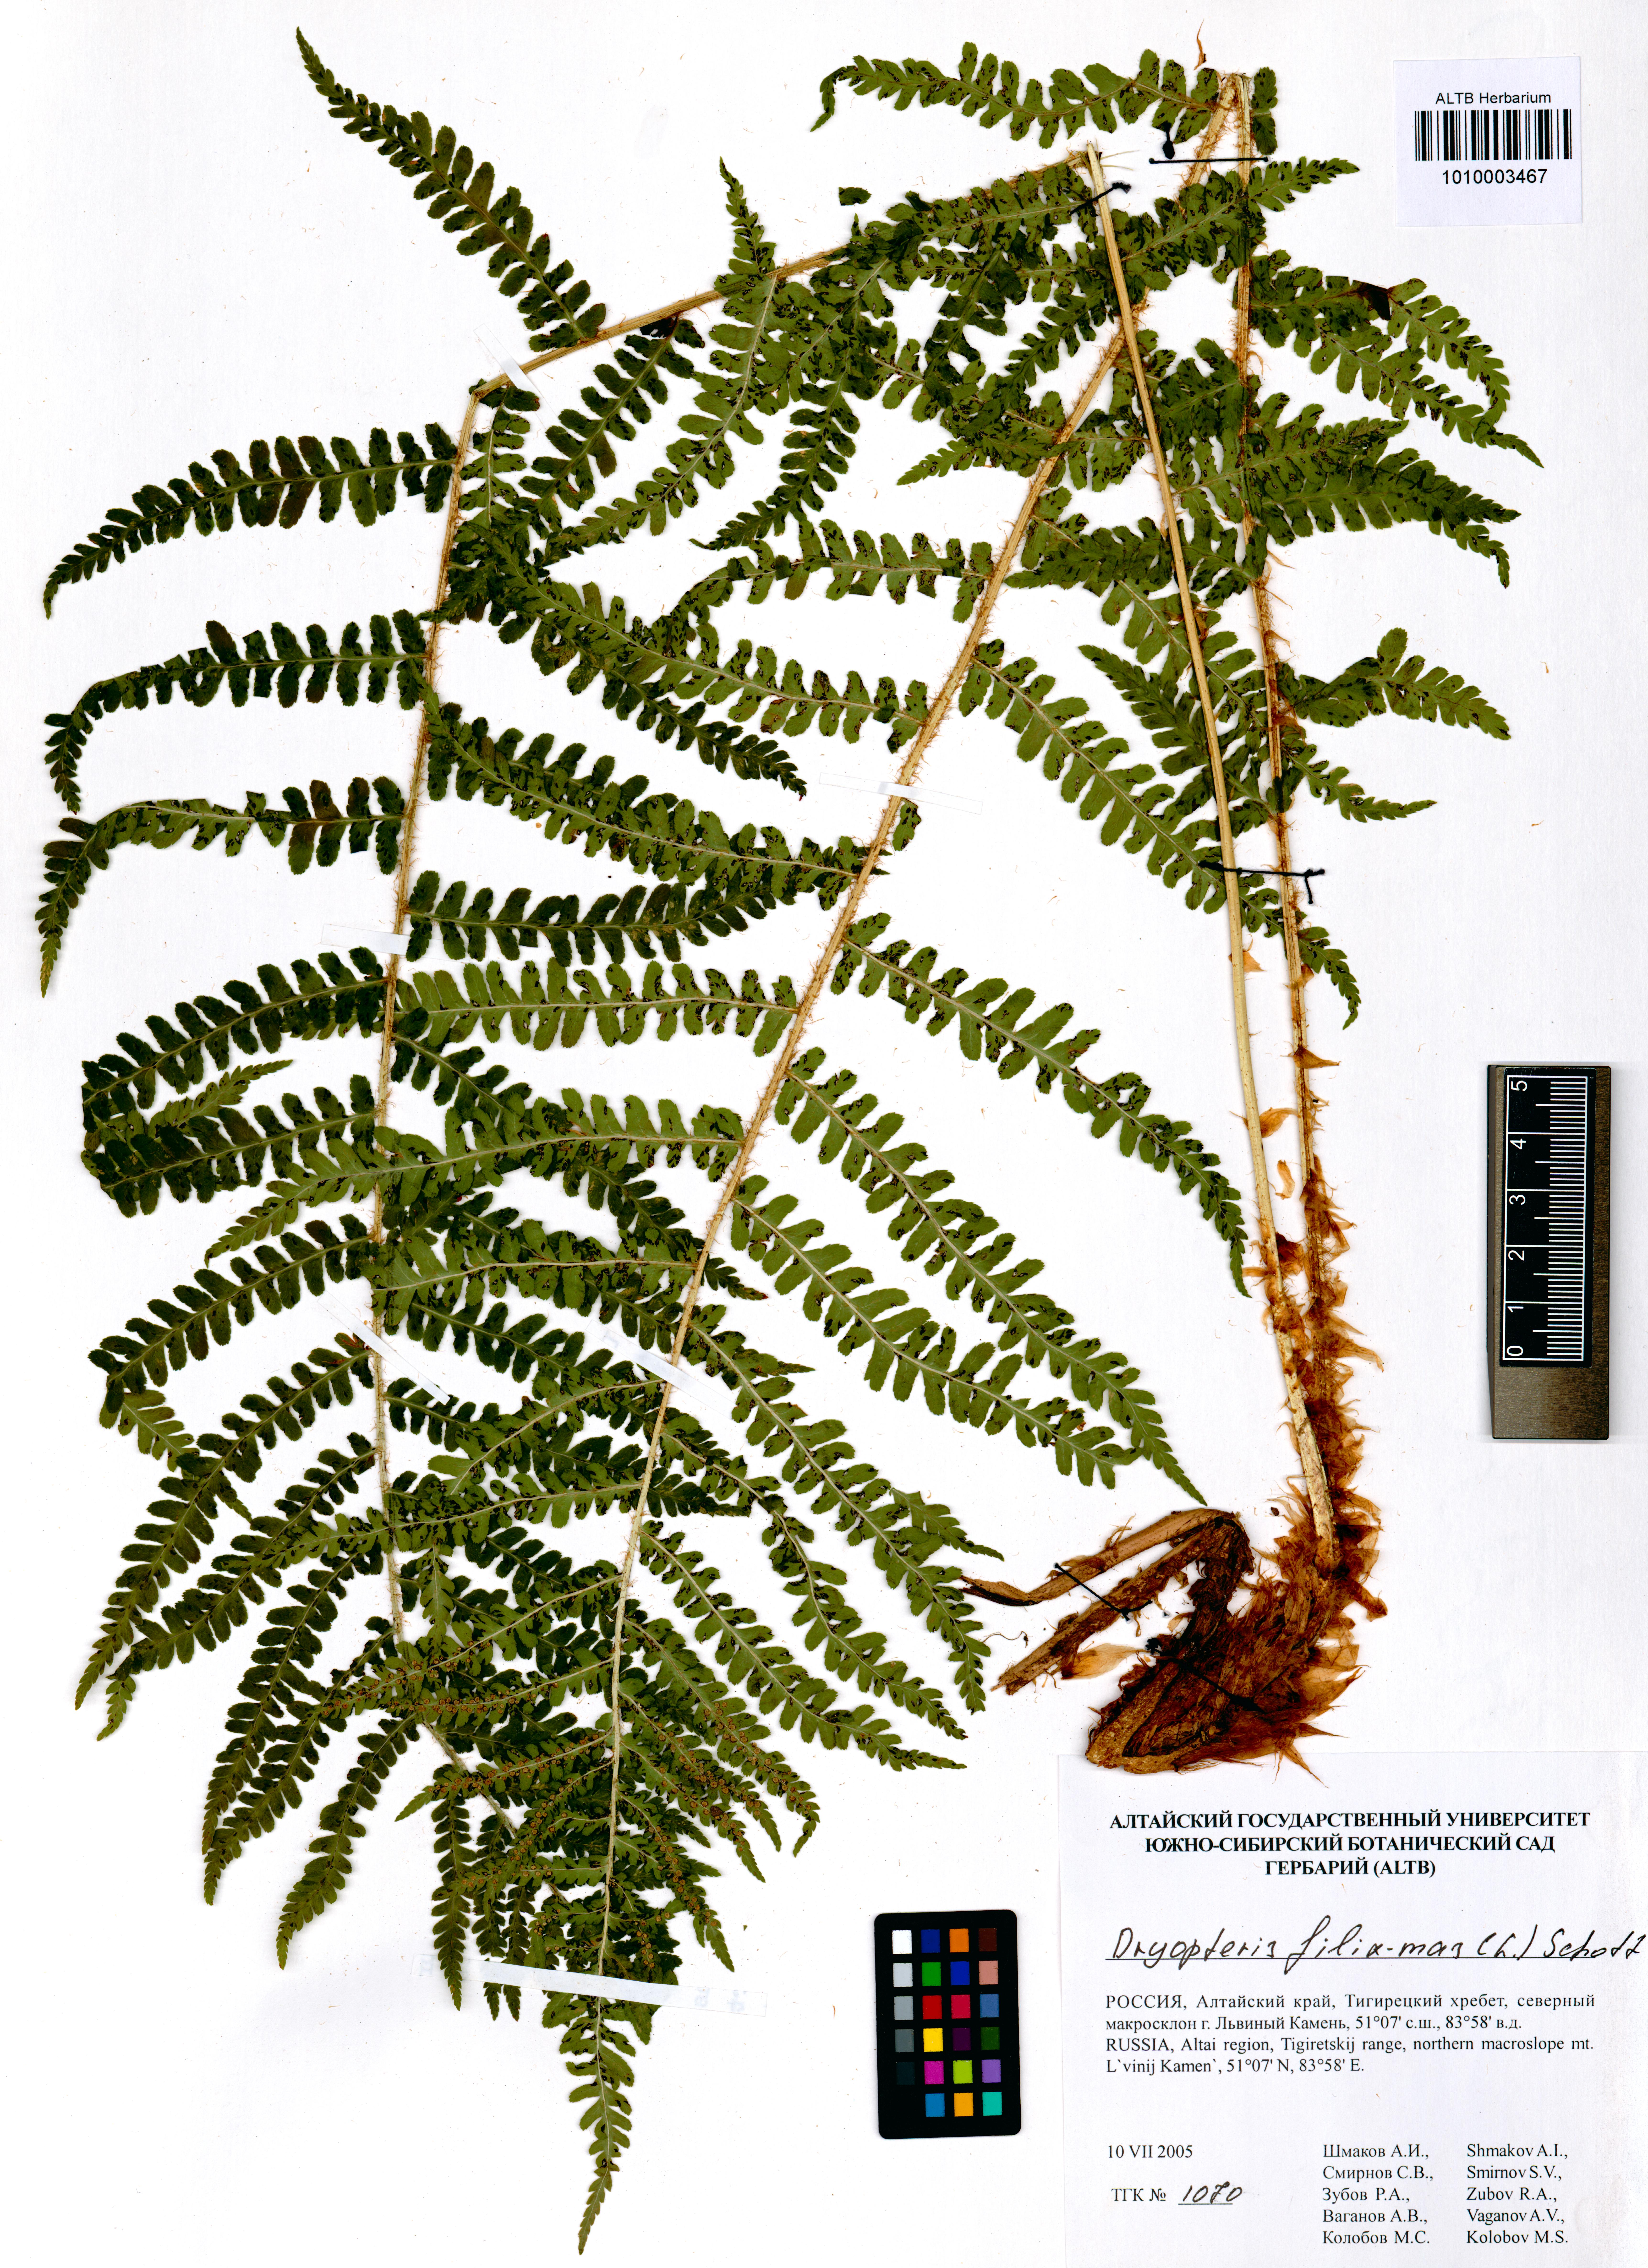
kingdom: Plantae
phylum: Tracheophyta
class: Polypodiopsida
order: Polypodiales
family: Dryopteridaceae
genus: Dryopteris
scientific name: Dryopteris filix-mas
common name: Male fern
